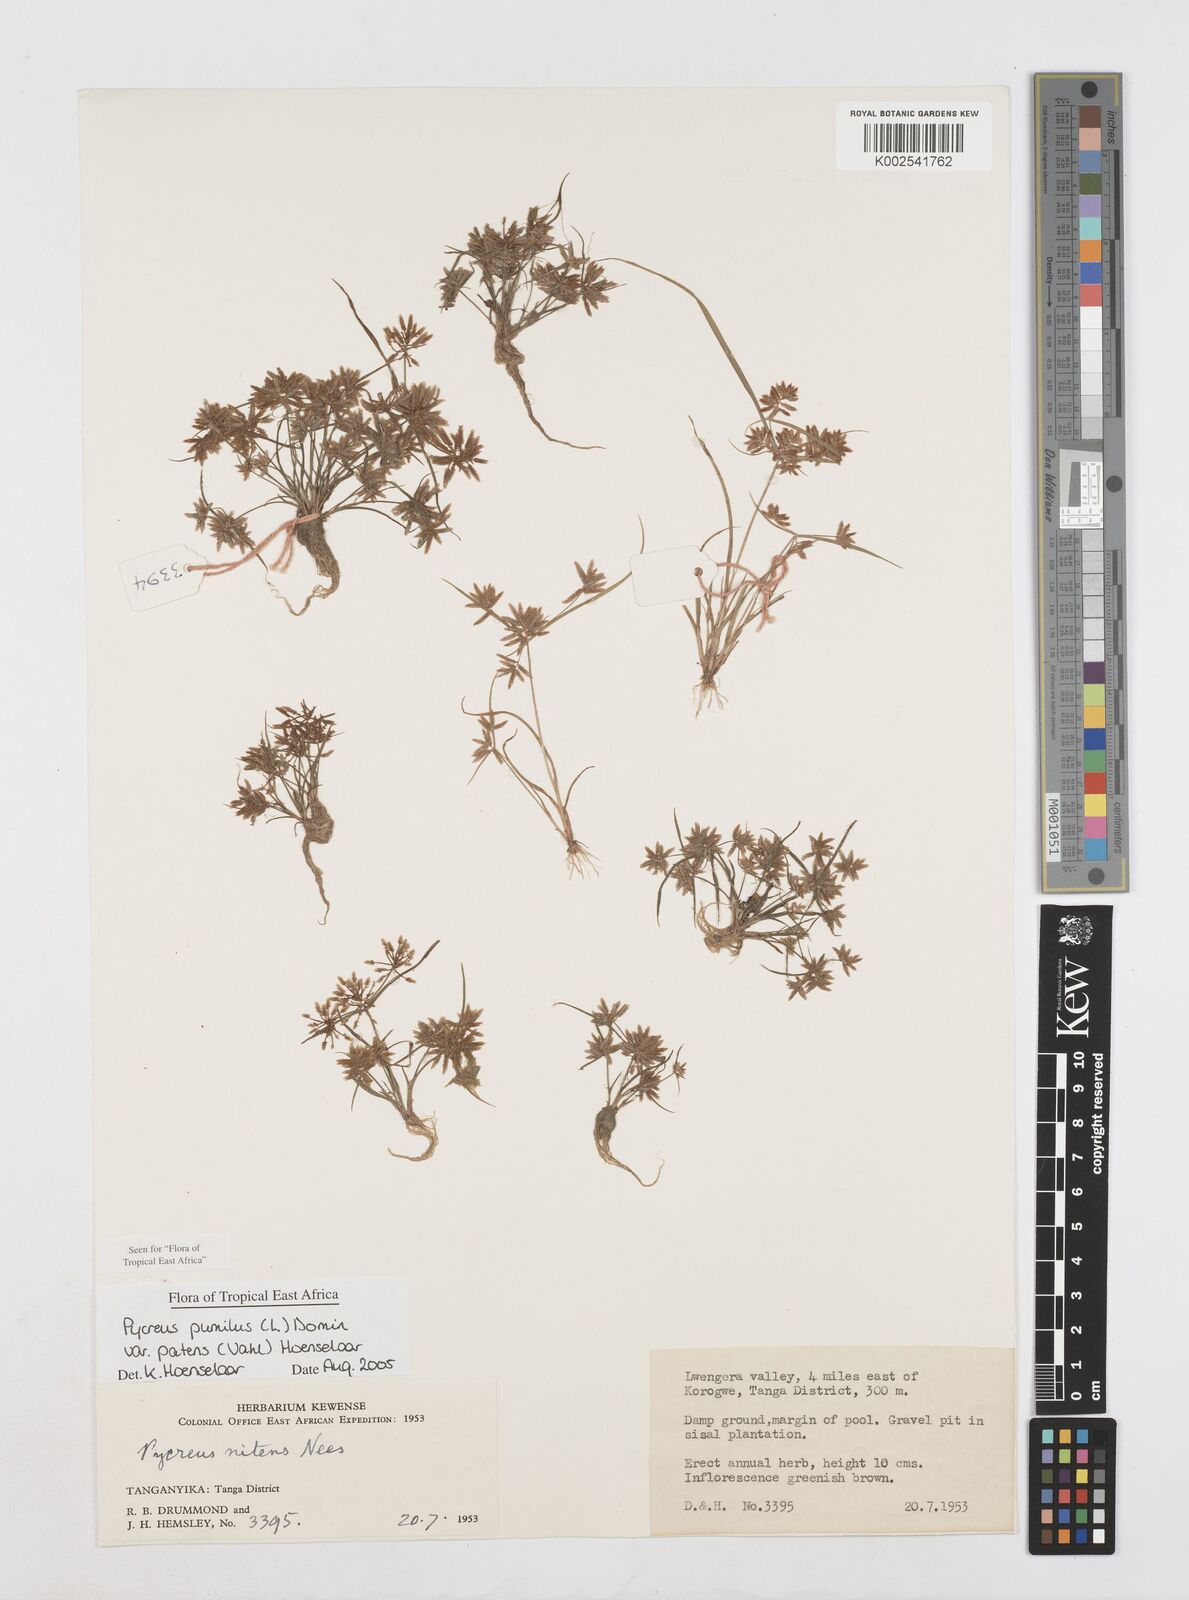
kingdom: Plantae
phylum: Tracheophyta
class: Liliopsida
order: Poales
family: Cyperaceae
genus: Cyperus
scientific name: Cyperus pumilus
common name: Low flatsedge
